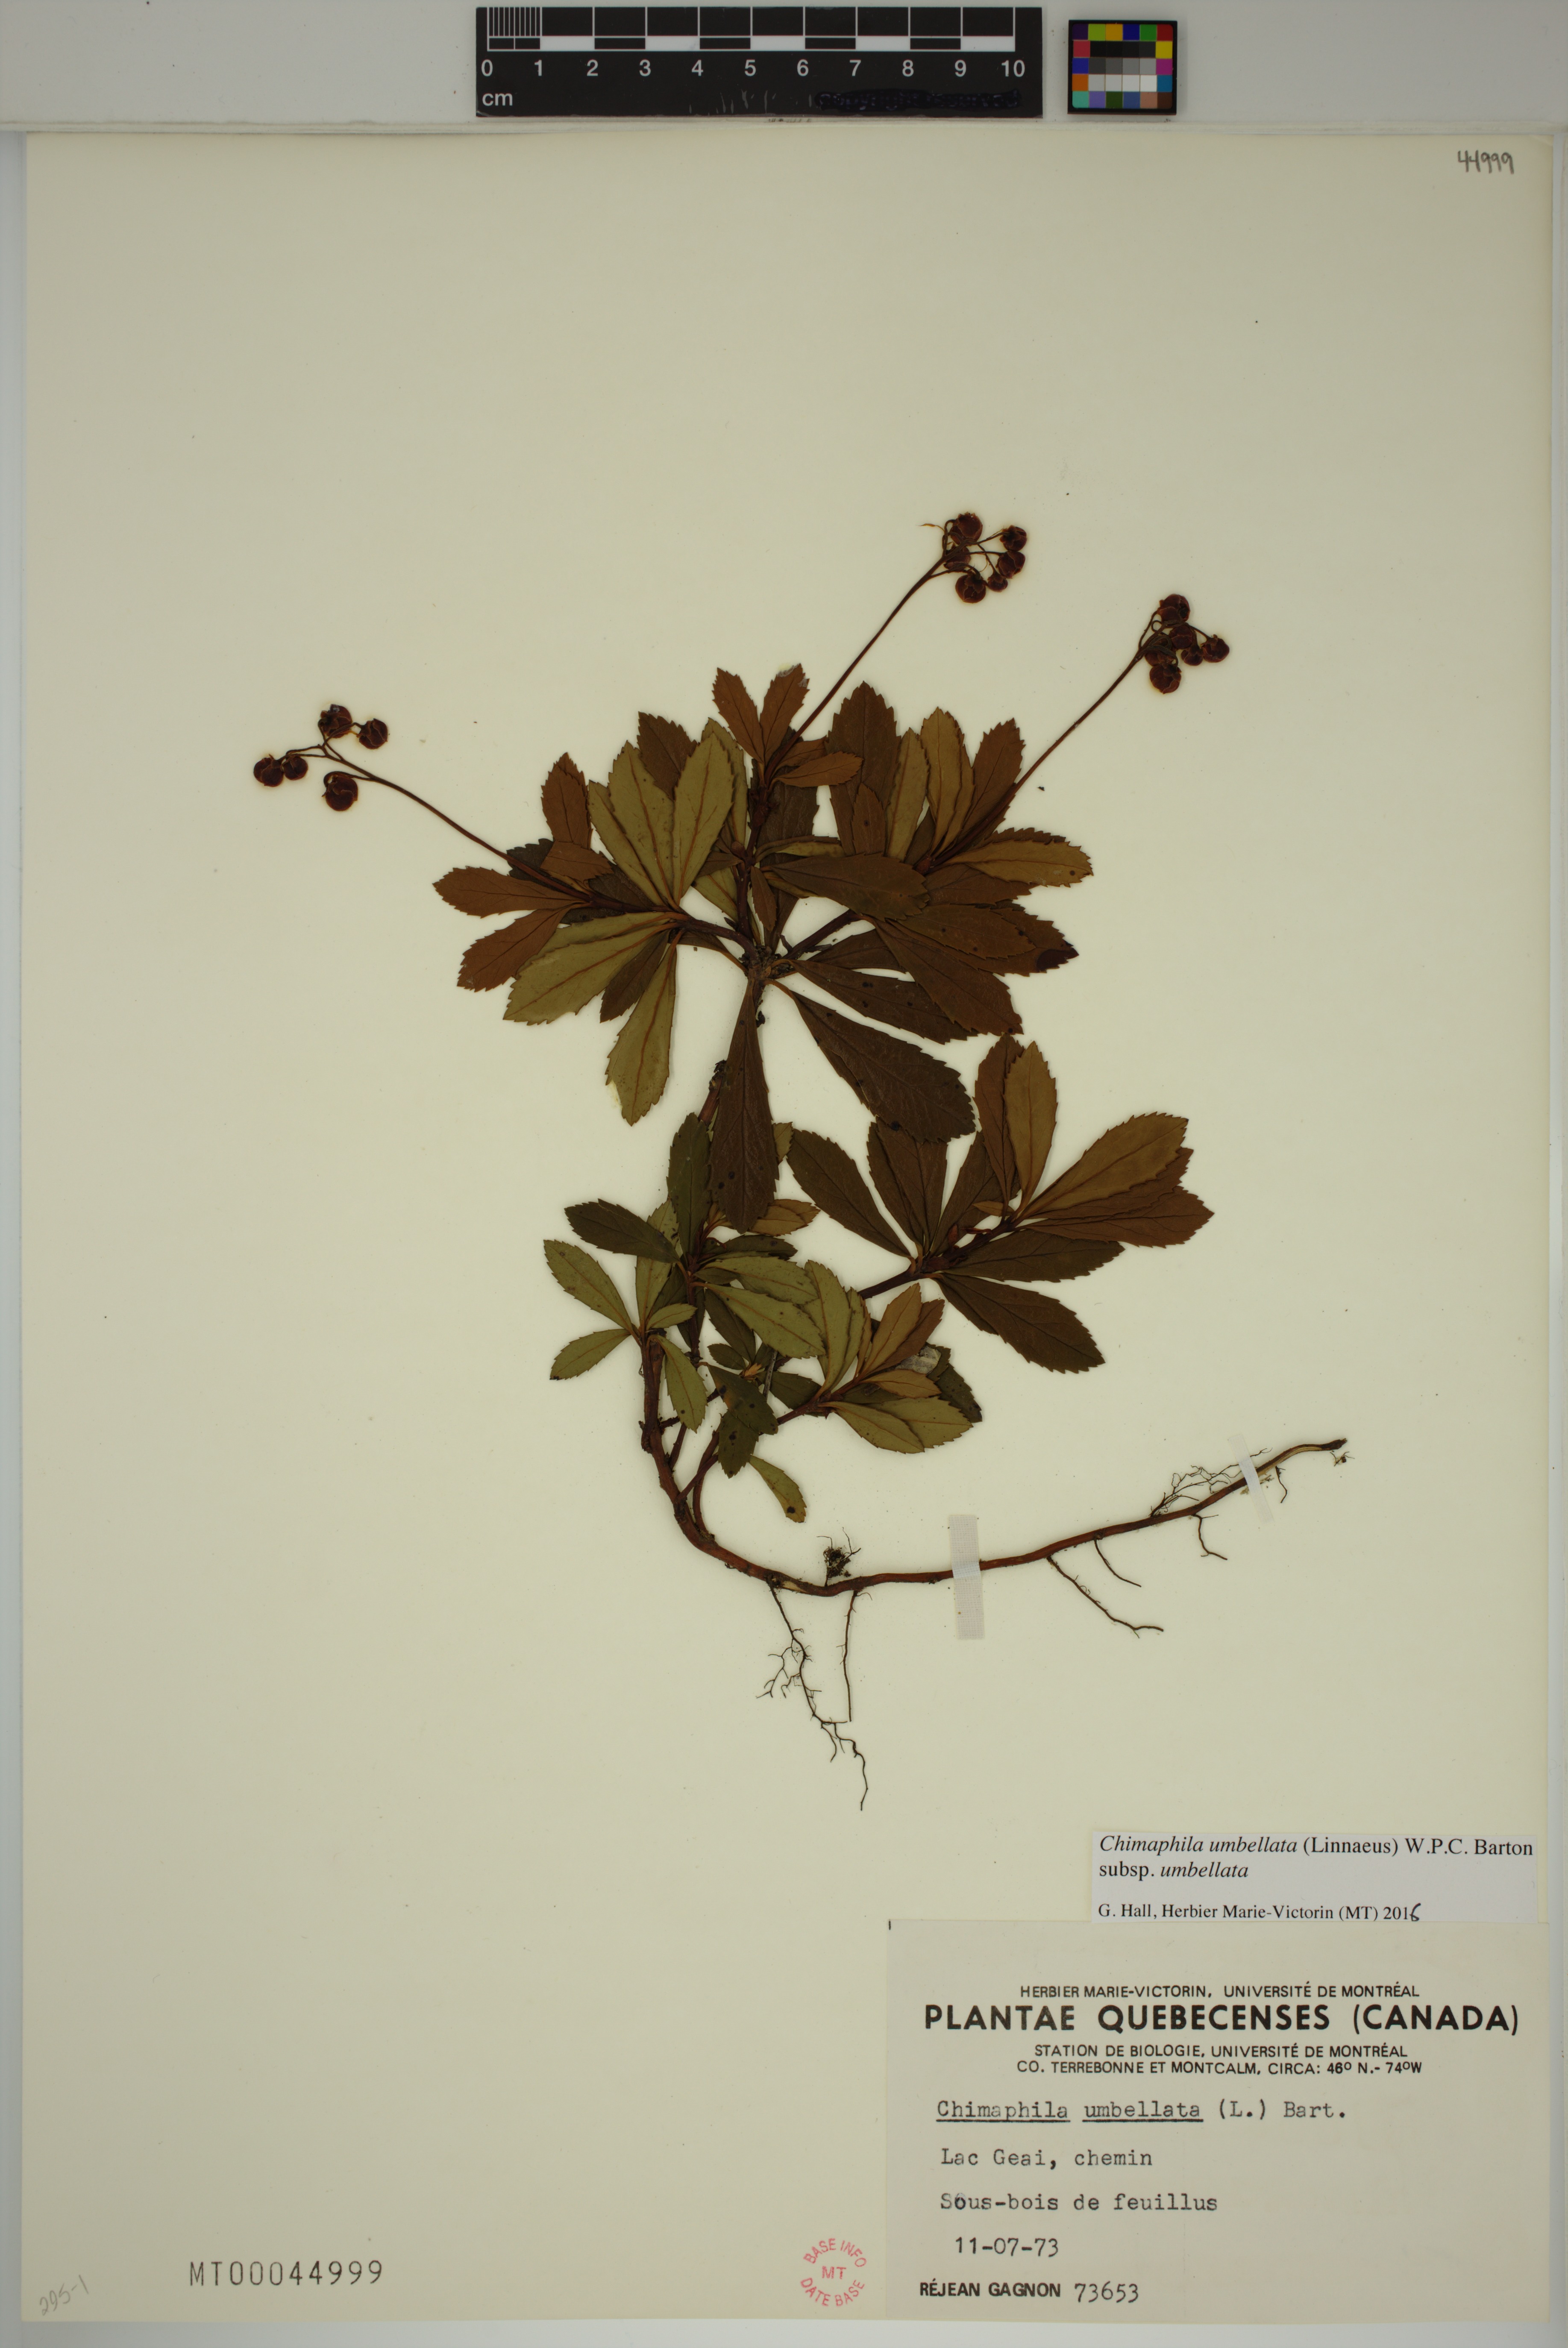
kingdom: Plantae
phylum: Tracheophyta
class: Magnoliopsida
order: Ericales
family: Ericaceae
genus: Chimaphila
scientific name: Chimaphila umbellata
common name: Pipsissewa
